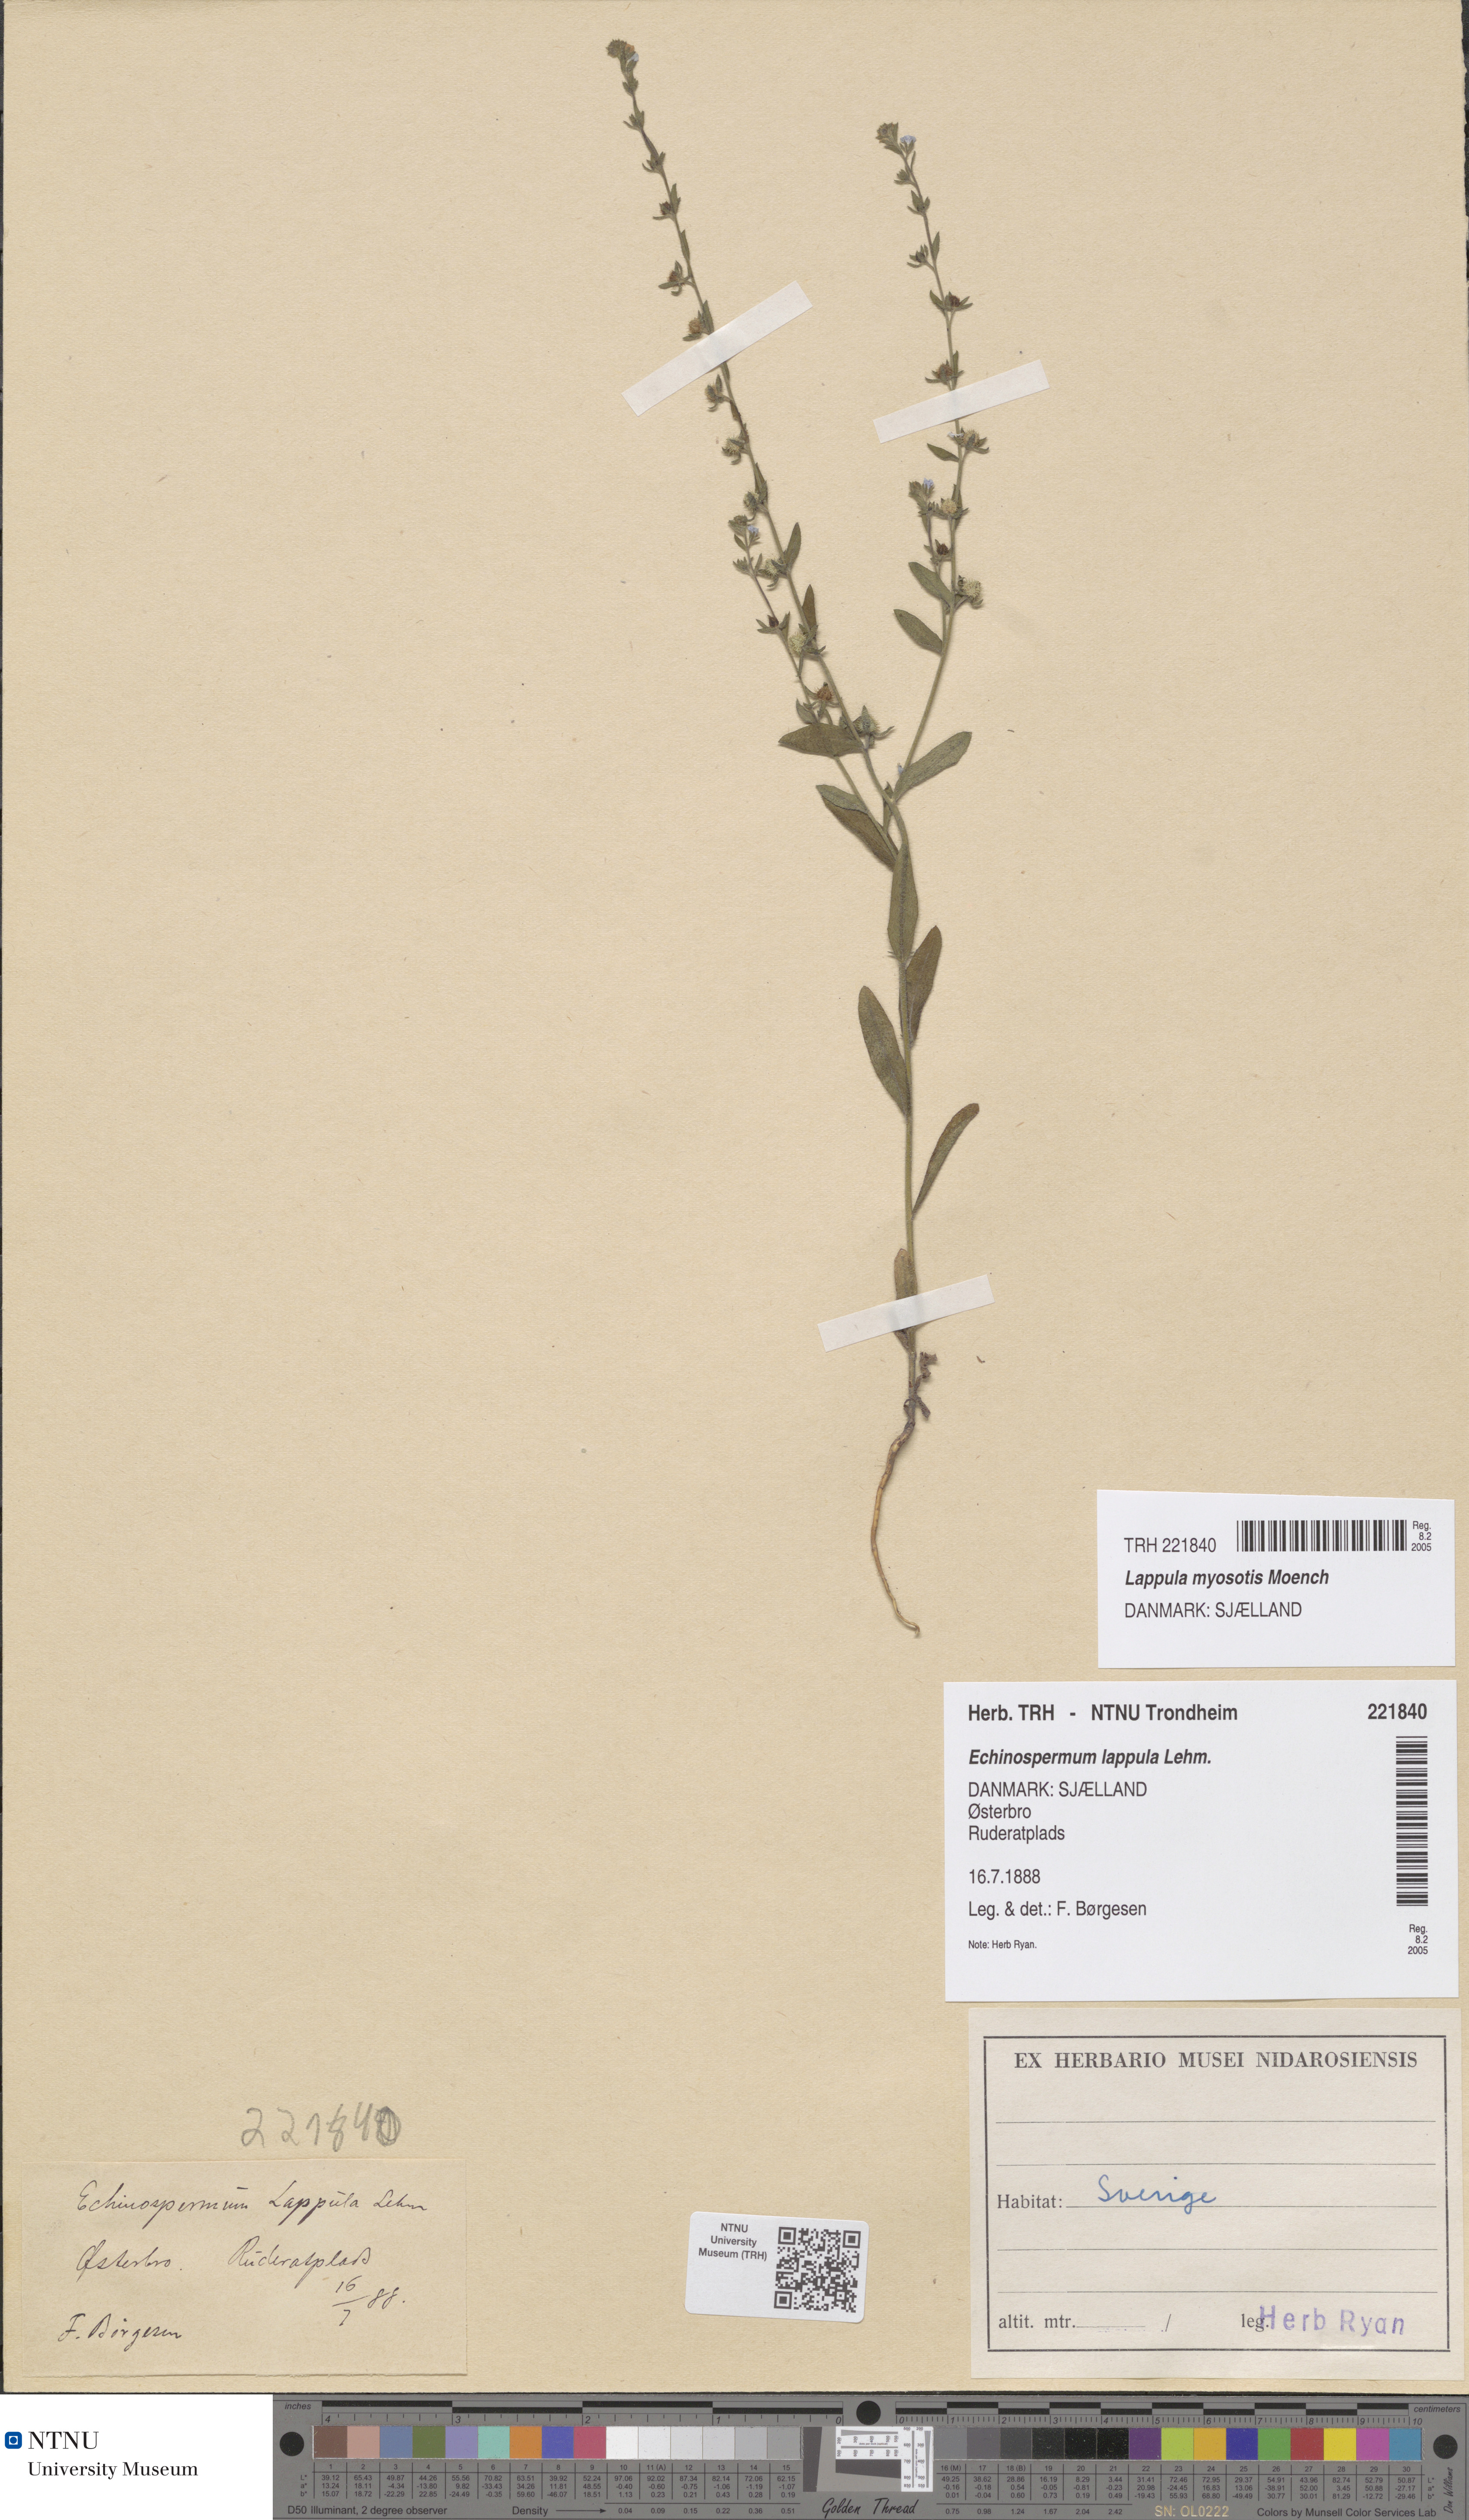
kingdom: Plantae
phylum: Tracheophyta
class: Magnoliopsida
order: Boraginales
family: Boraginaceae
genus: Lappula
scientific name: Lappula squarrosa
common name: European stickseed
